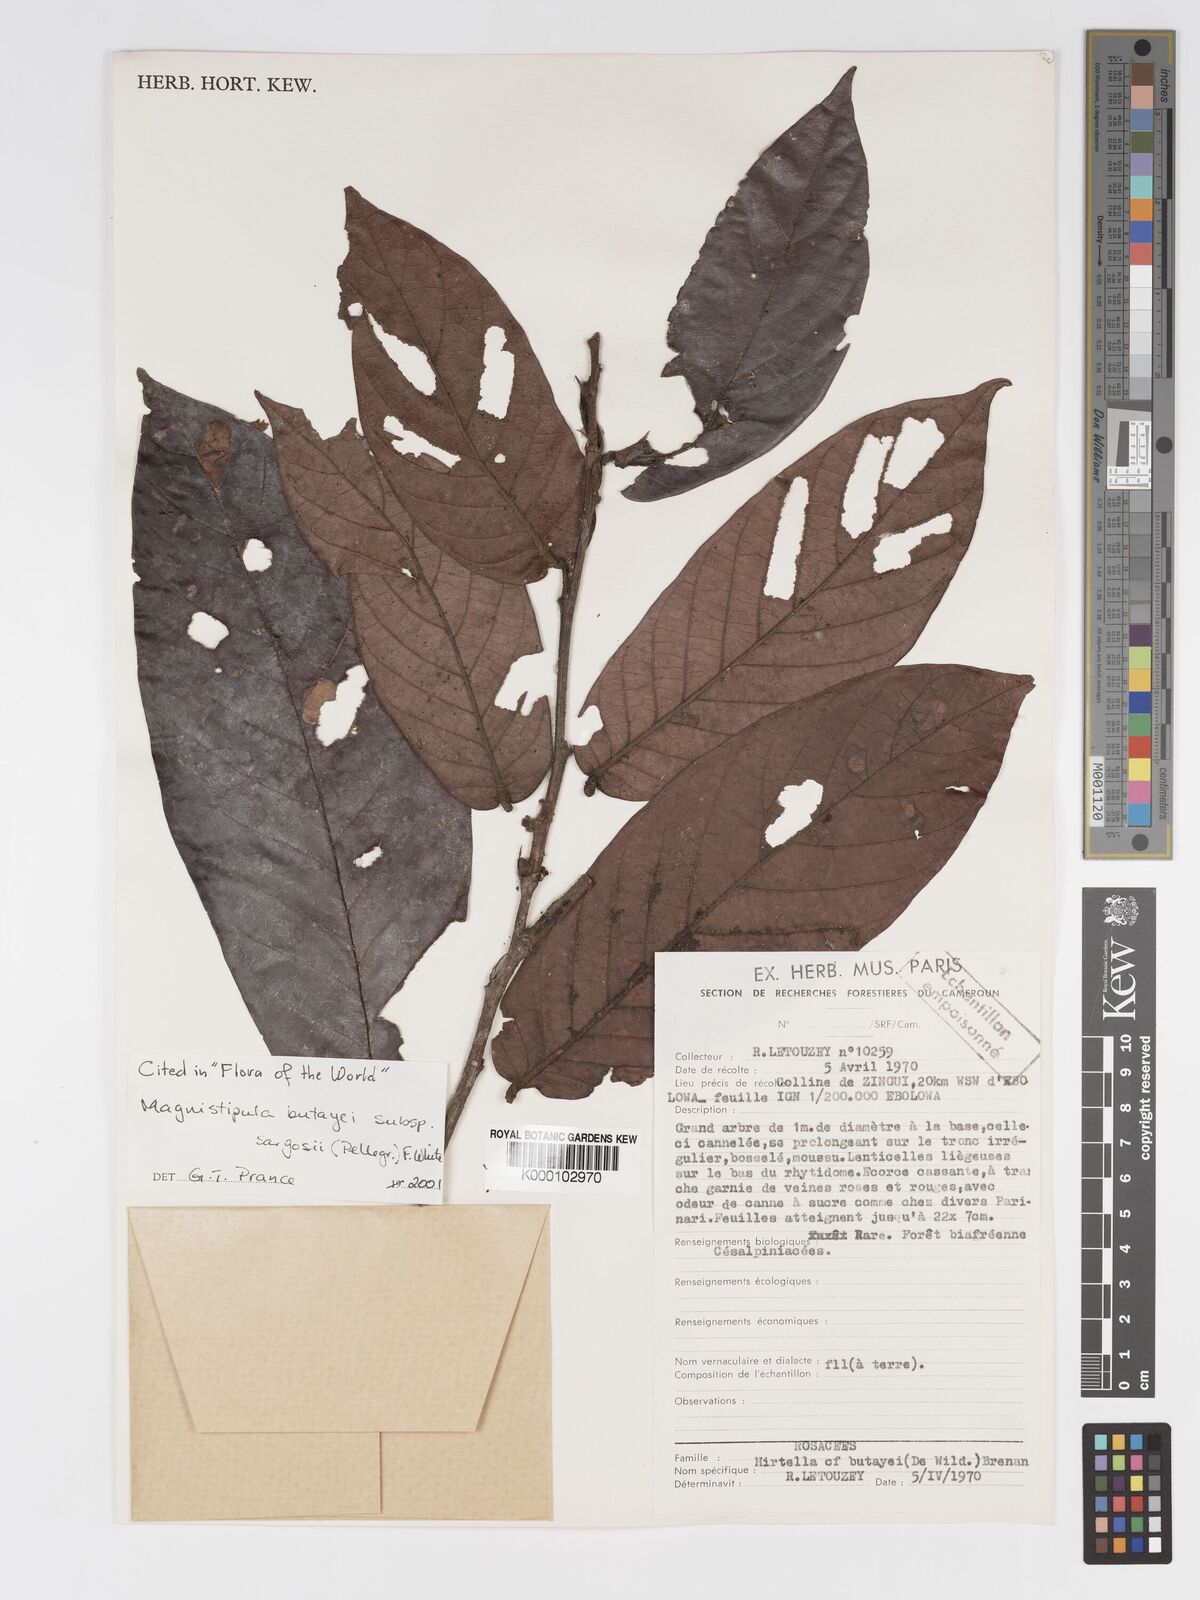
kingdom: Plantae
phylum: Tracheophyta
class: Magnoliopsida
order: Malpighiales
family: Chrysobalanaceae
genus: Magnistipula
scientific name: Magnistipula butayei
